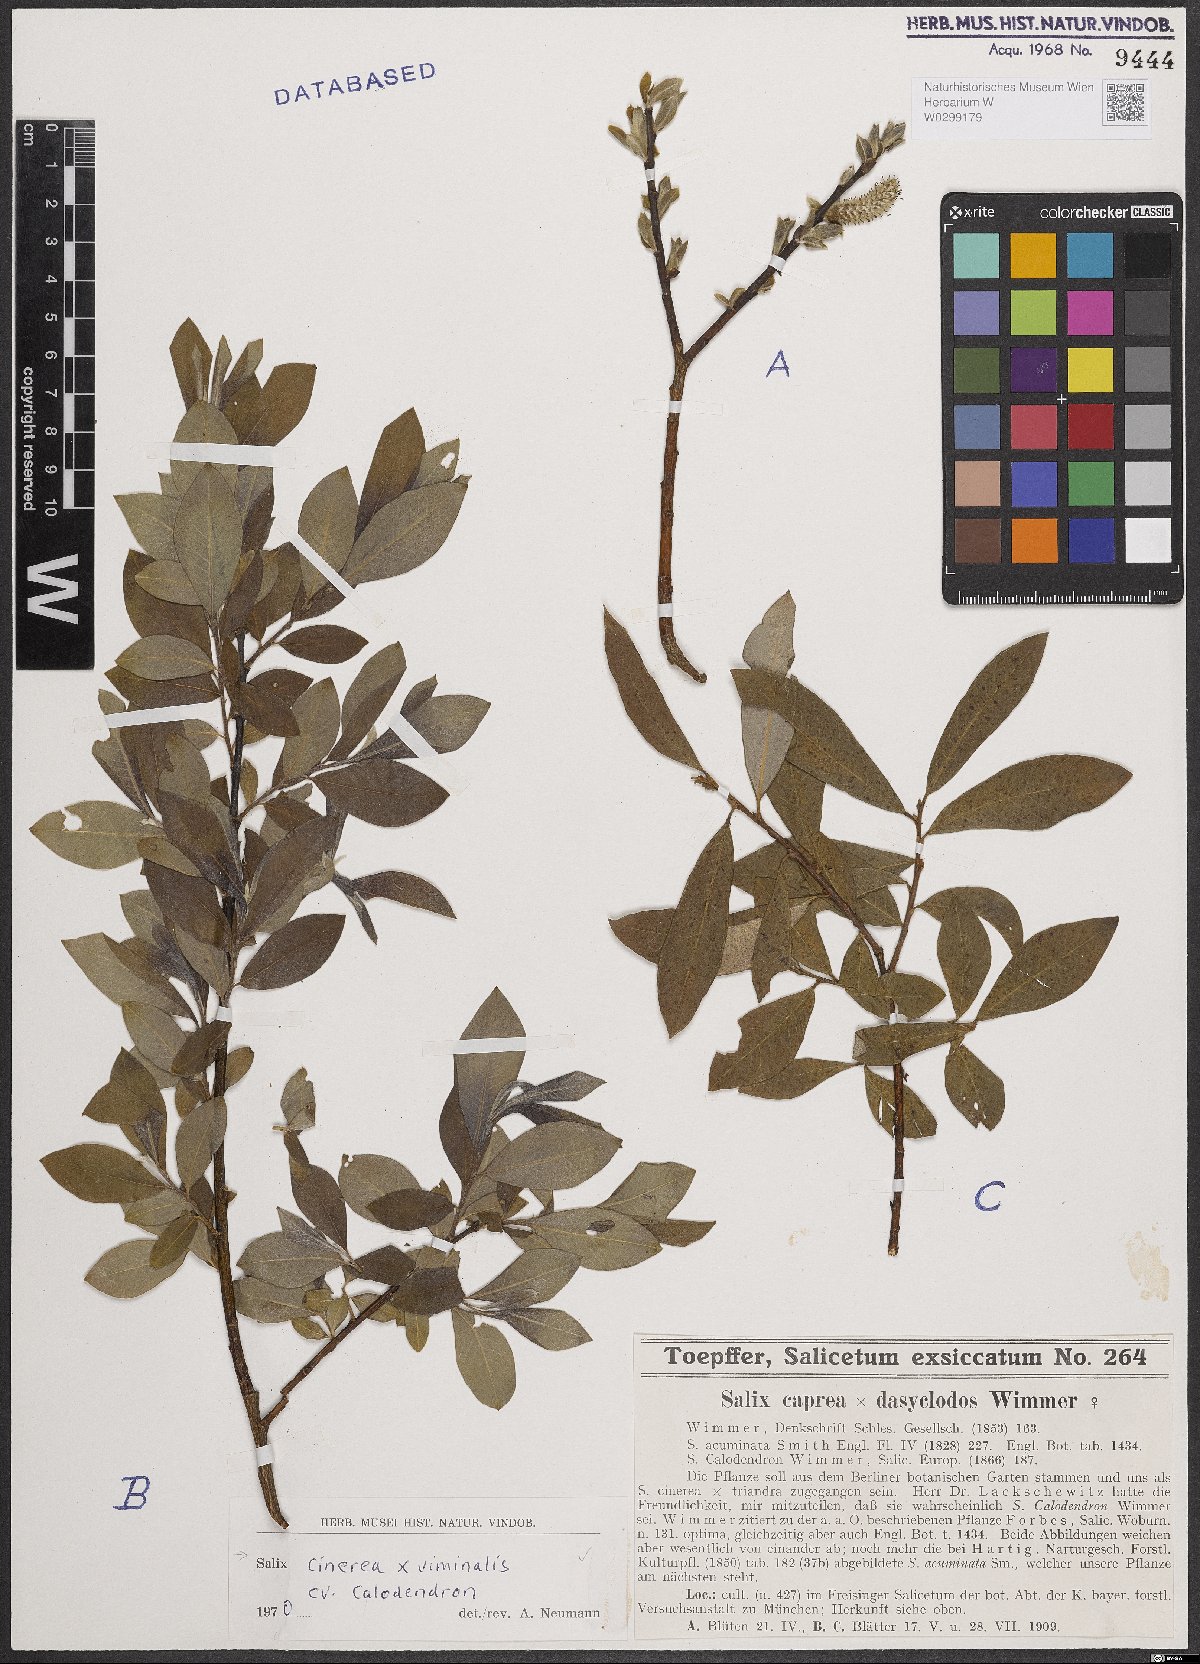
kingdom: Plantae
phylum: Tracheophyta
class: Magnoliopsida
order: Malpighiales
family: Salicaceae
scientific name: Salicaceae
